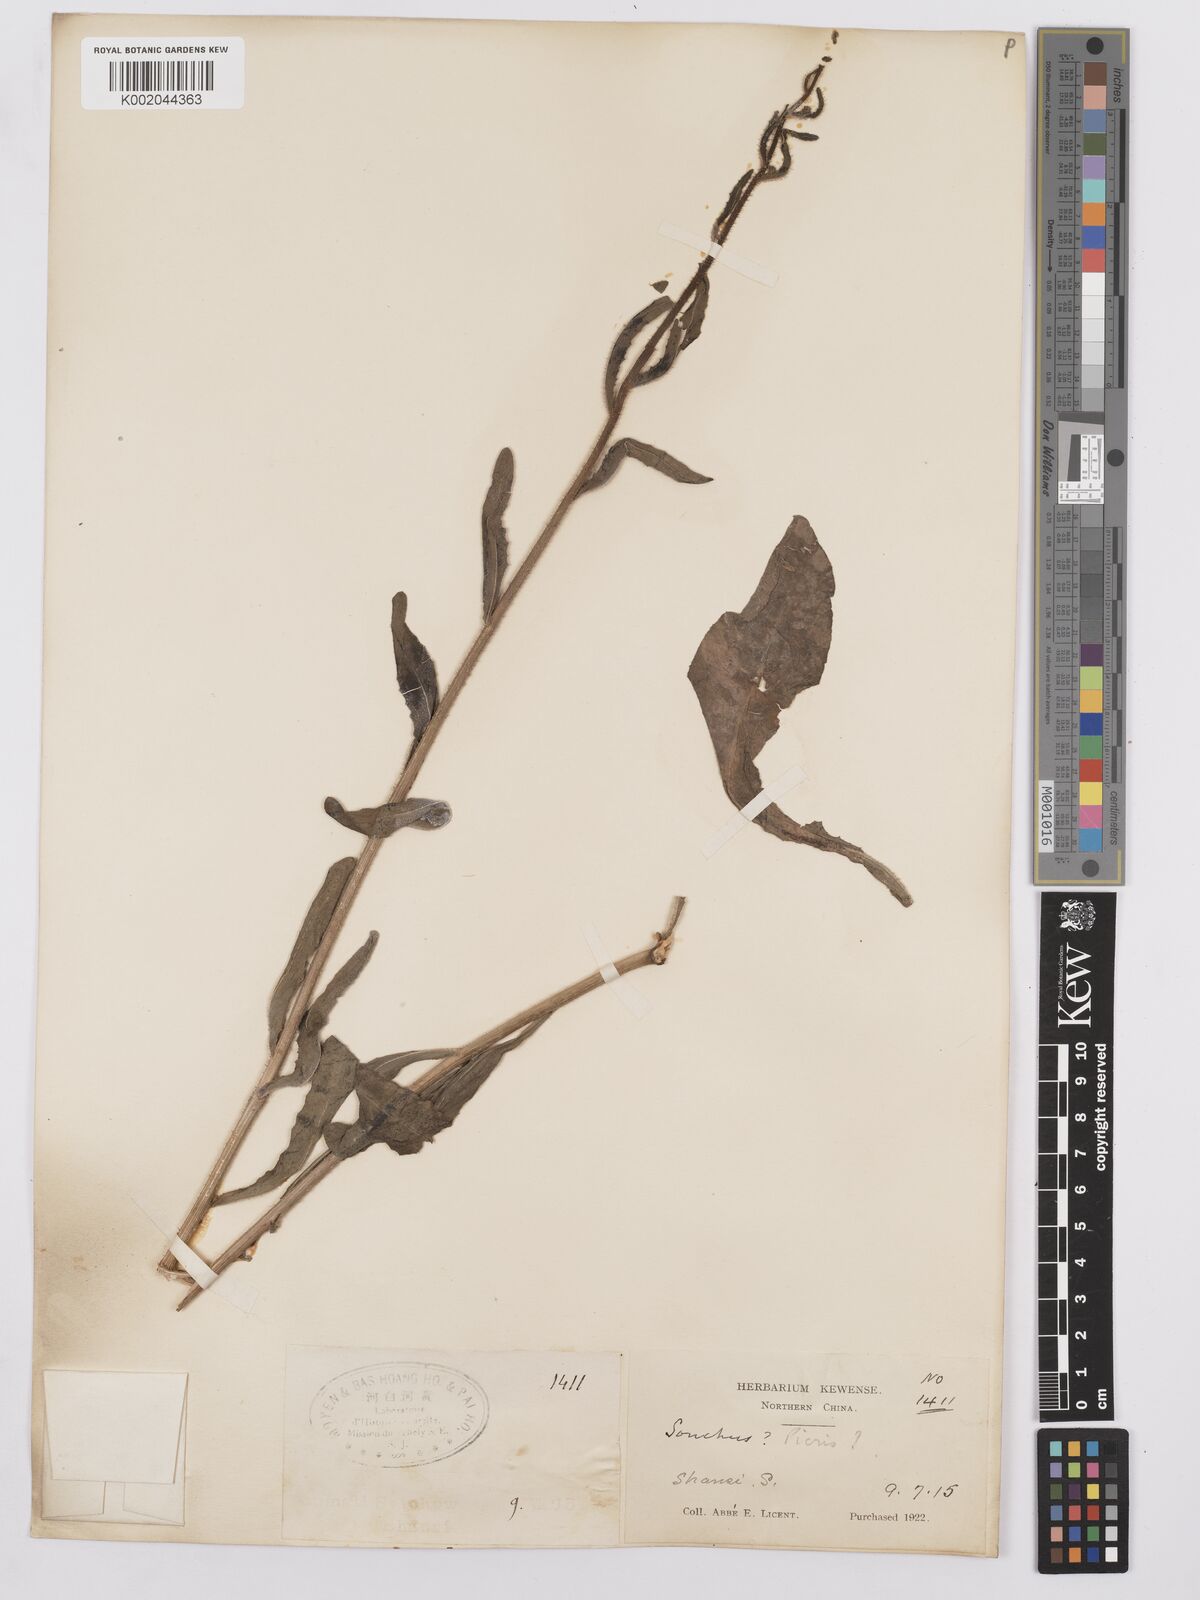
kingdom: Plantae
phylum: Tracheophyta
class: Magnoliopsida
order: Asterales
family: Asteraceae
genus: Picris
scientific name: Picris hieracioides
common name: Hawkweed oxtongue
